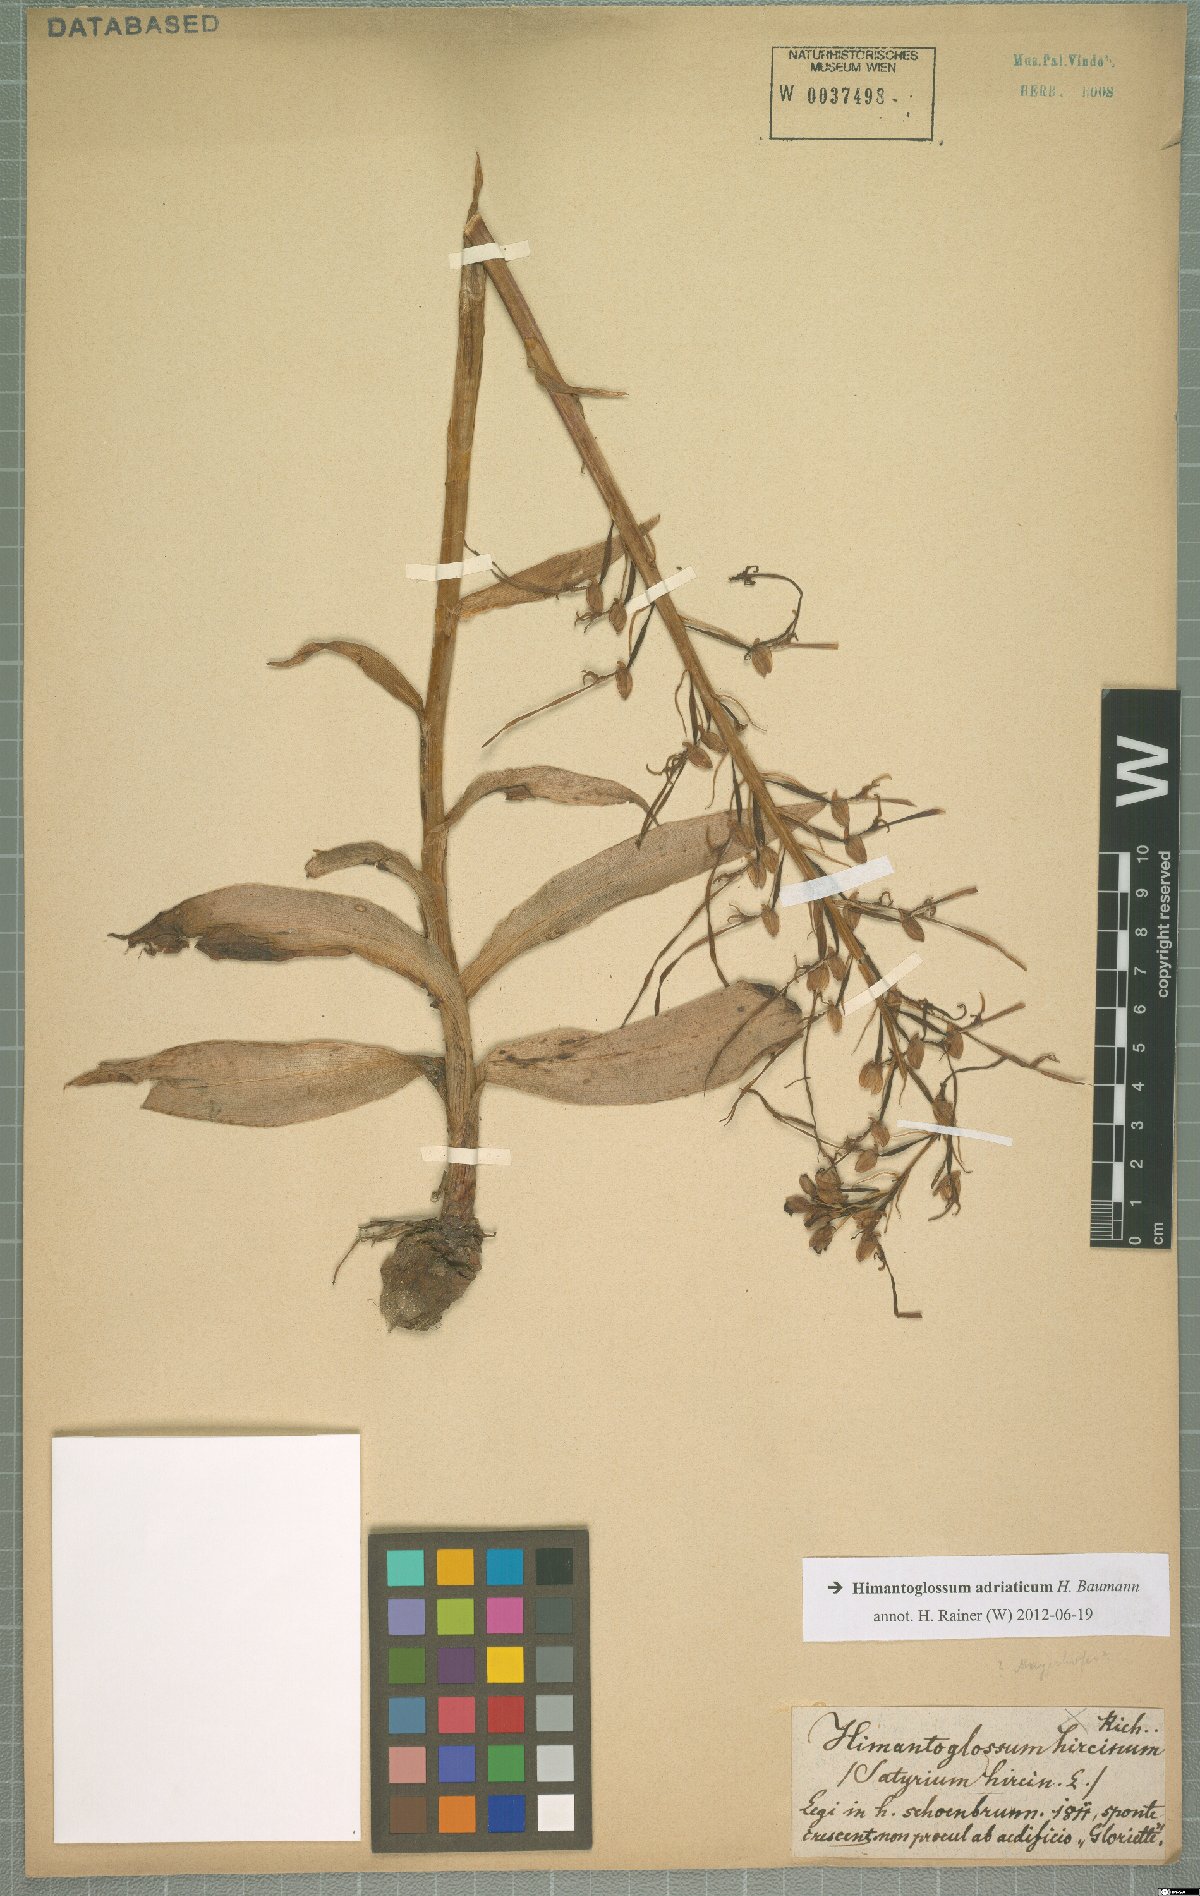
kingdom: Plantae
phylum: Tracheophyta
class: Liliopsida
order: Asparagales
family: Orchidaceae
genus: Himantoglossum
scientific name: Himantoglossum adriaticum
